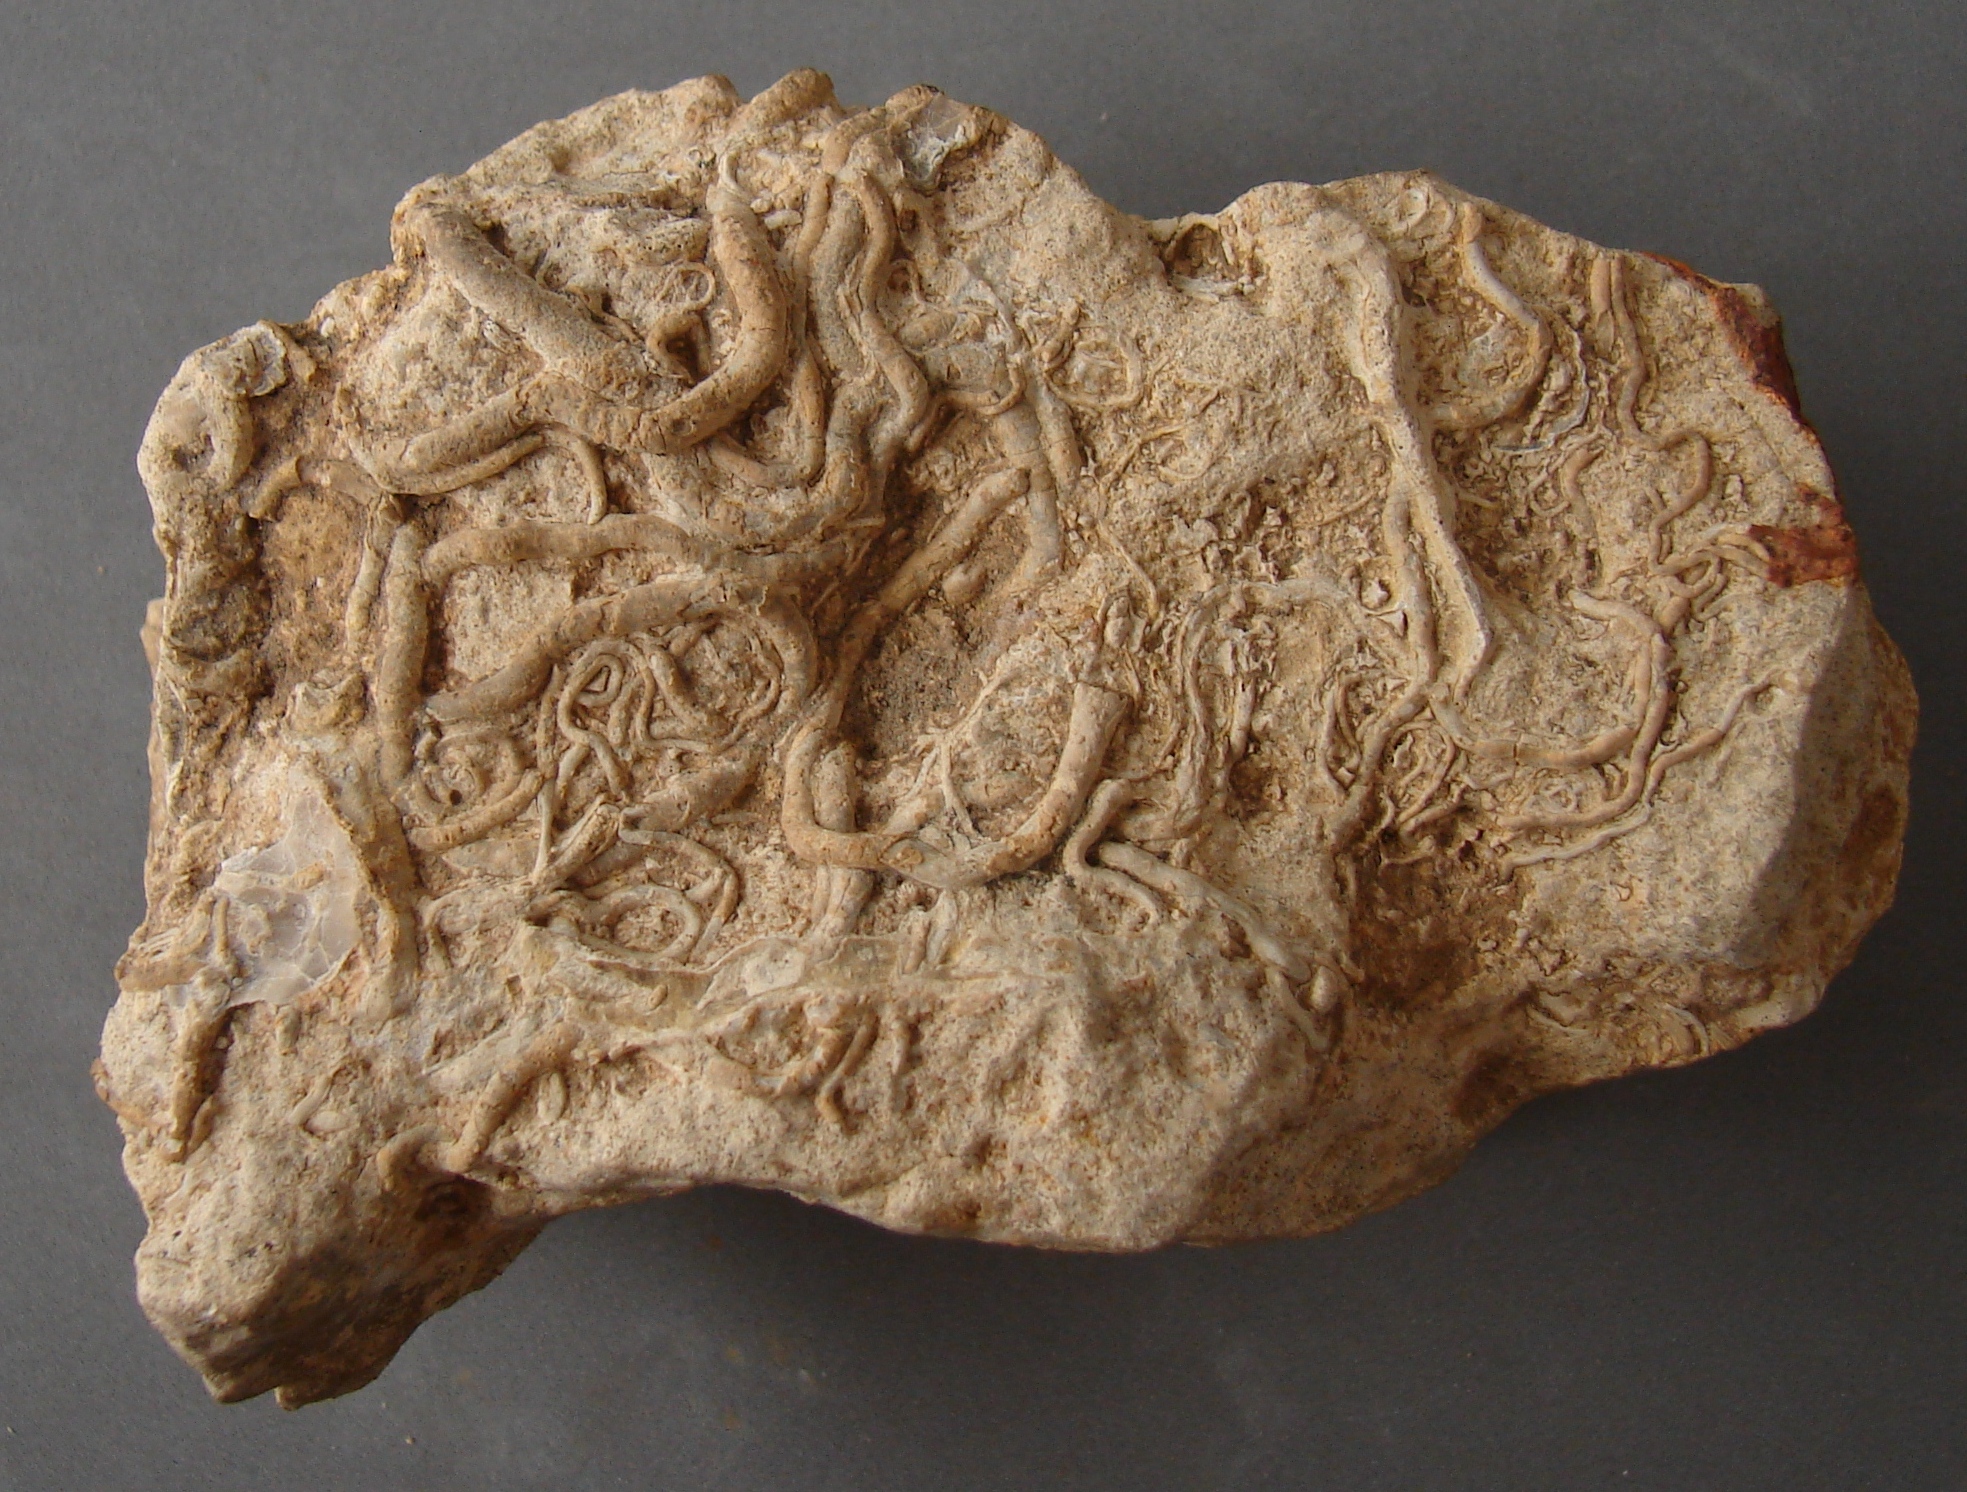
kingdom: Animalia
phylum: Annelida
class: Polychaeta
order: Sabellida
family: Sabellidae
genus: Glomerula
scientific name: Glomerula gordialis
